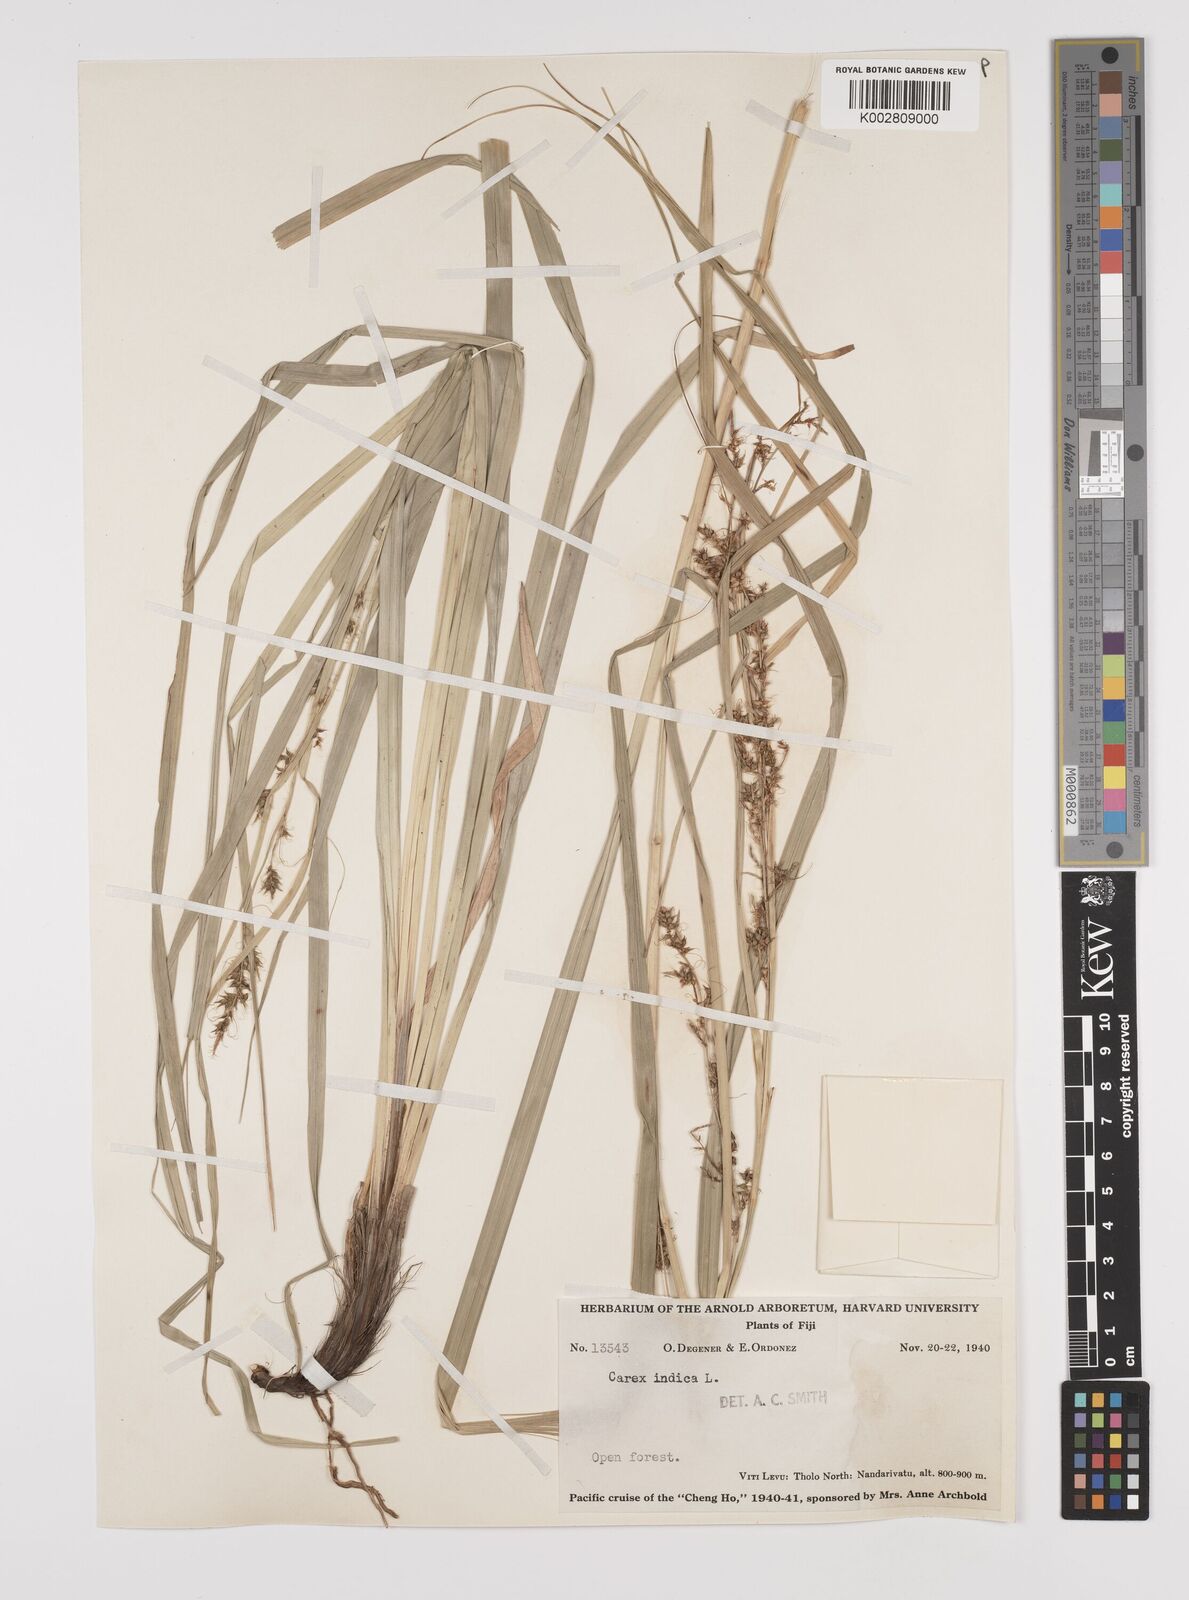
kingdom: Plantae
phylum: Tracheophyta
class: Liliopsida
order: Poales
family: Cyperaceae
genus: Carex
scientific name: Carex indica
